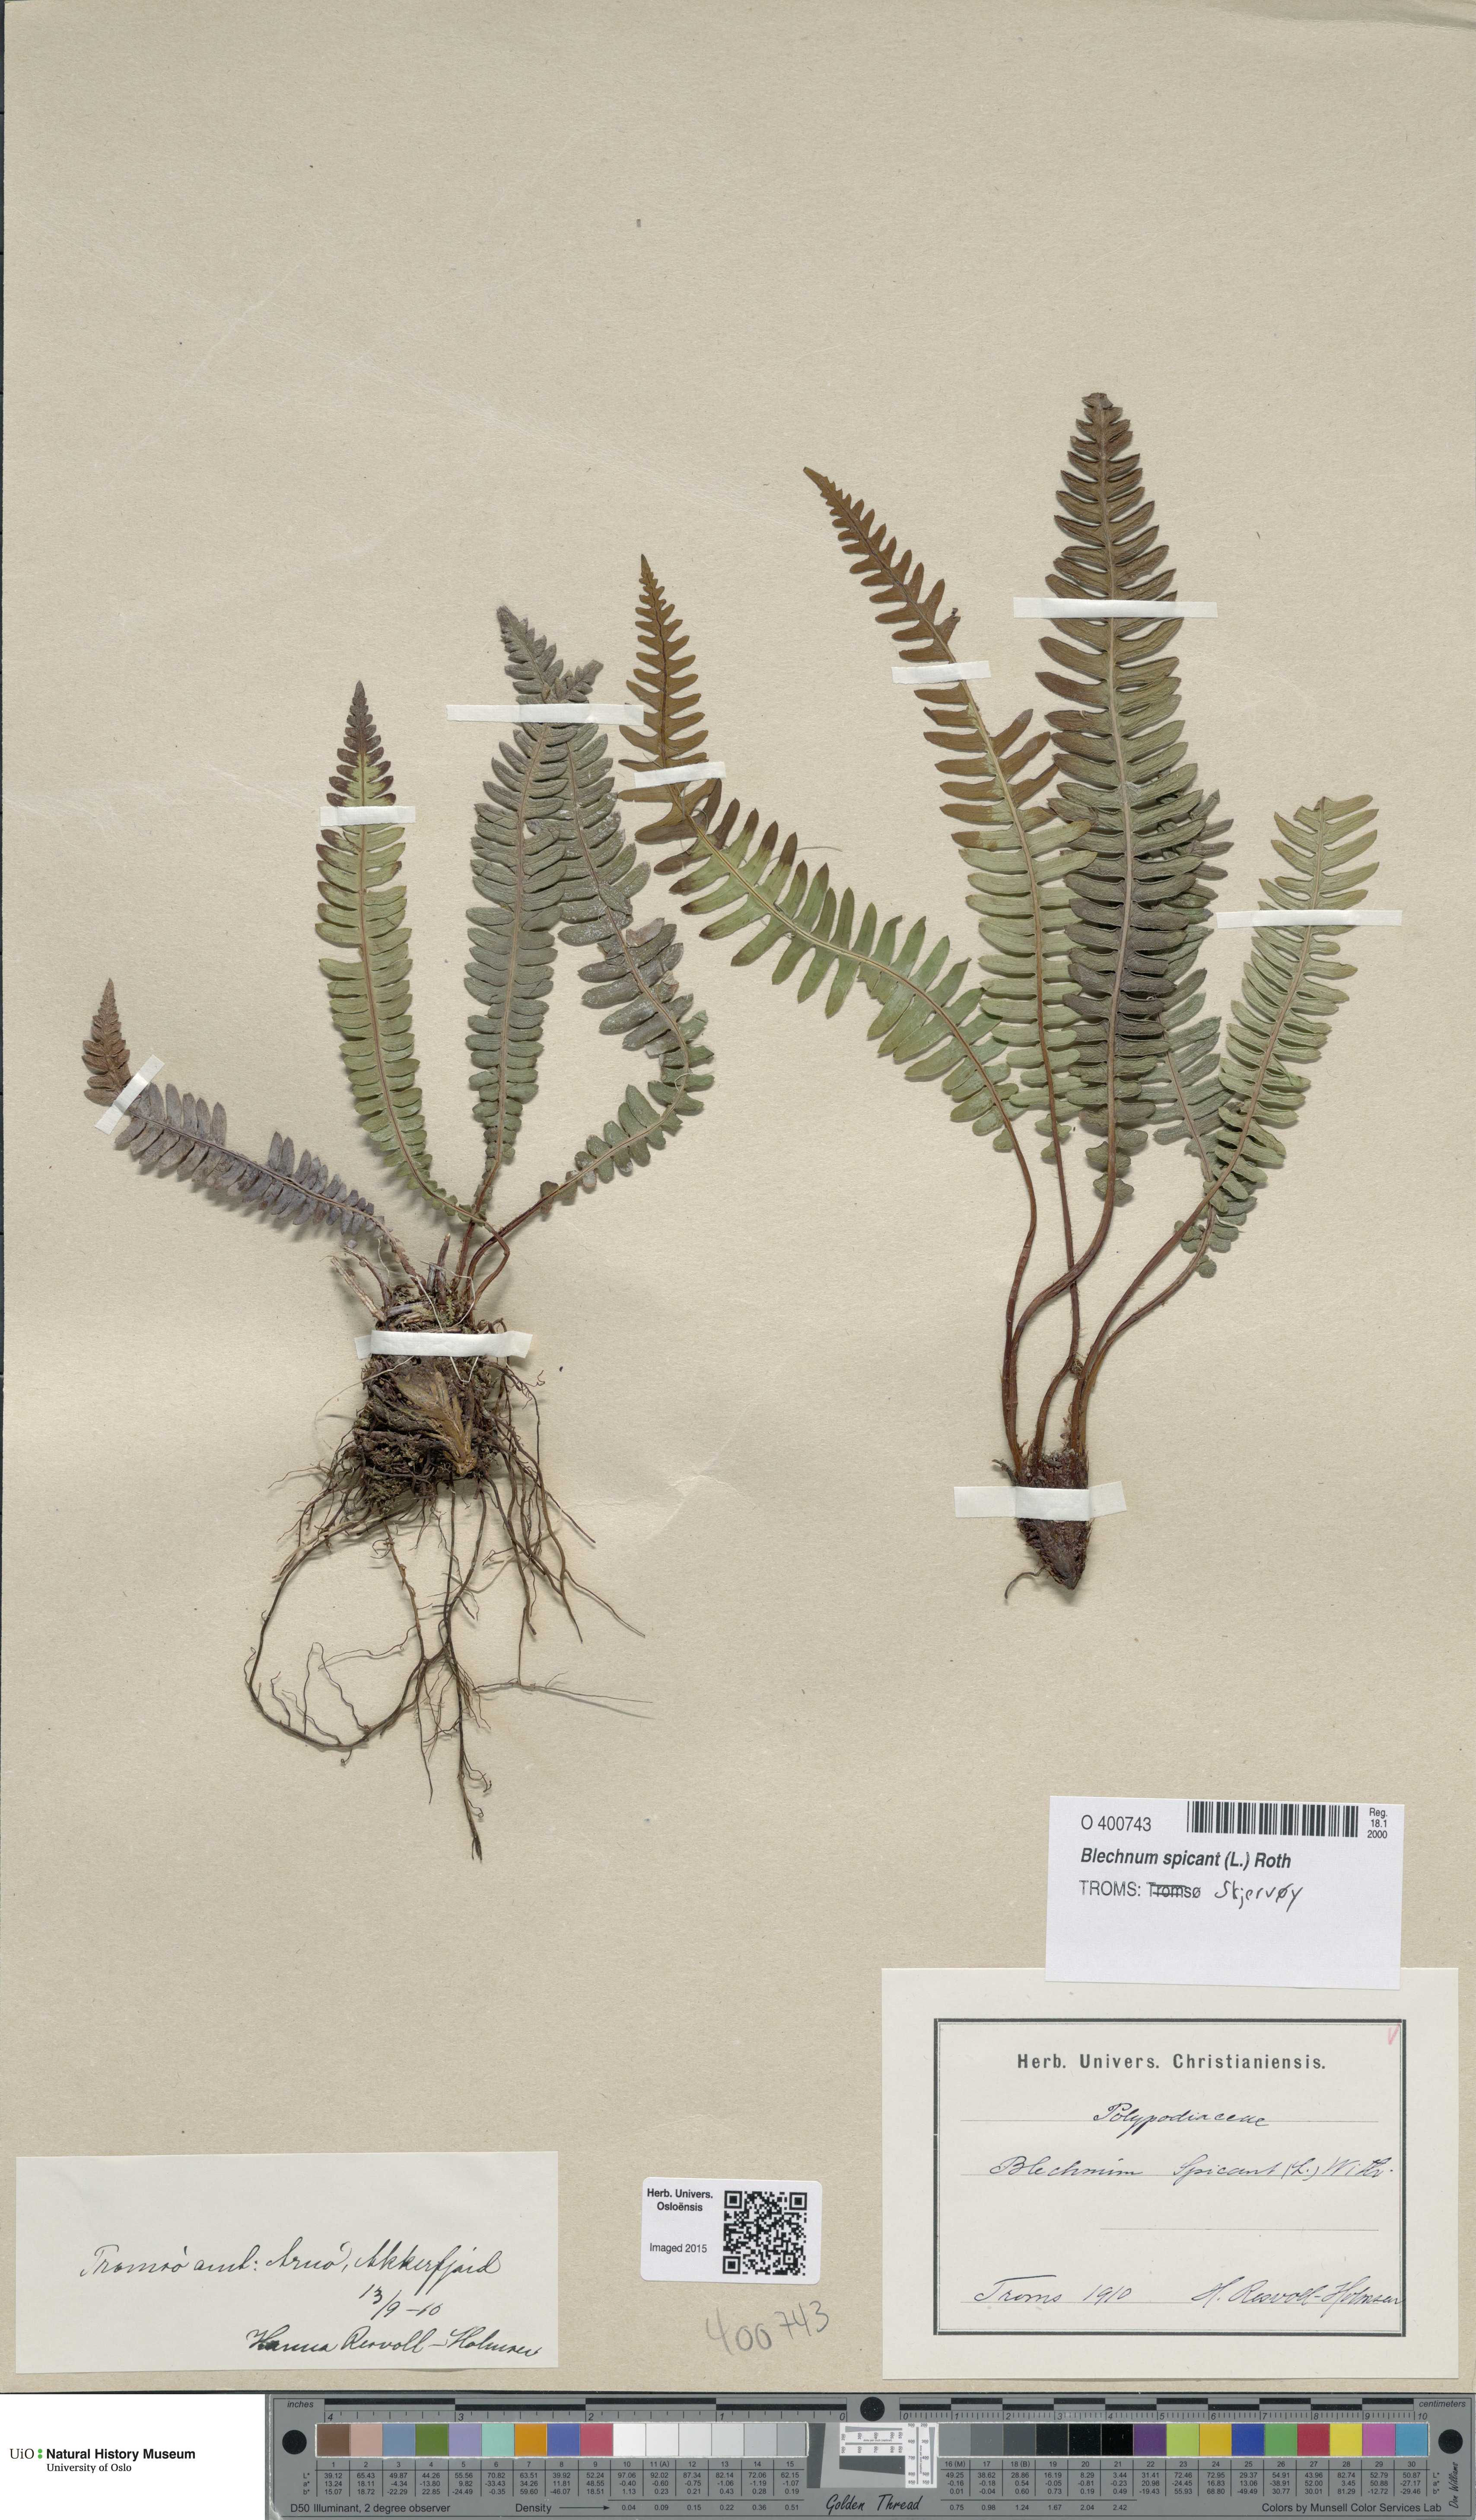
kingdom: Plantae
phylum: Tracheophyta
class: Polypodiopsida
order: Polypodiales
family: Blechnaceae
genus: Struthiopteris
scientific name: Struthiopteris spicant
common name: Deer fern
